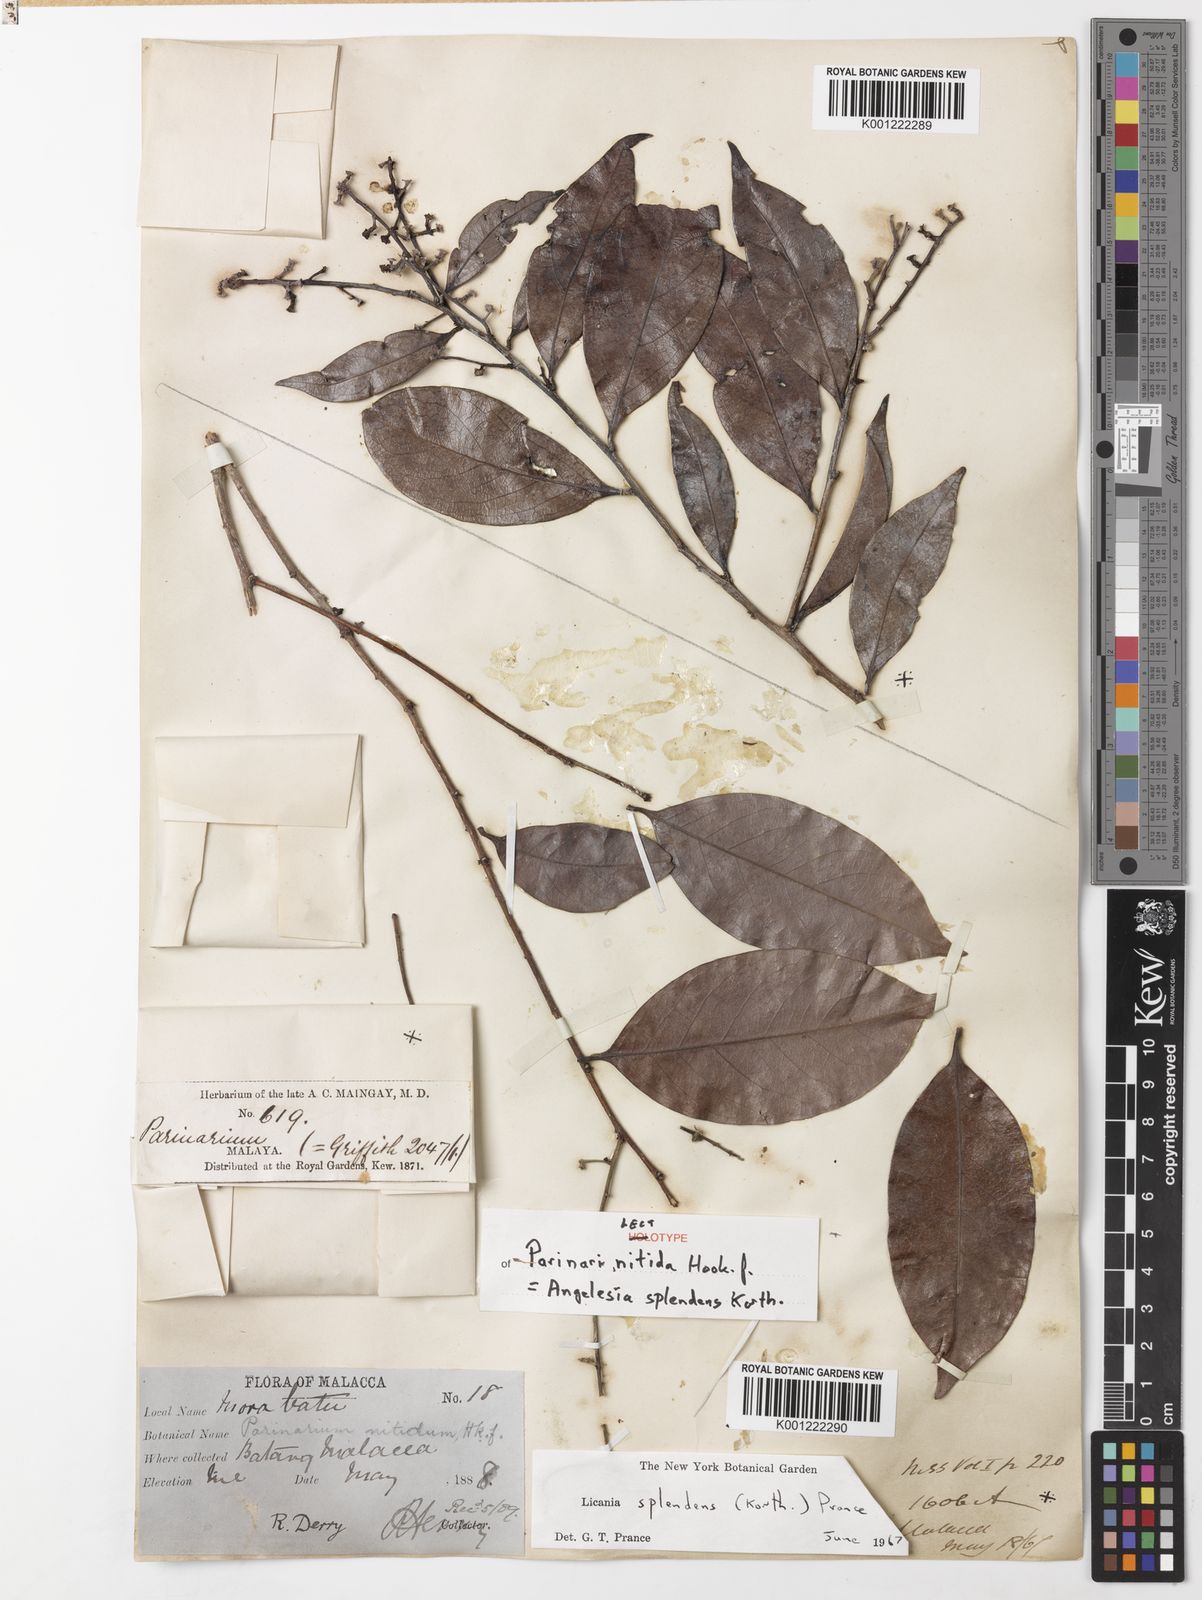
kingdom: Plantae
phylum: Tracheophyta
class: Magnoliopsida
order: Malpighiales
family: Chrysobalanaceae
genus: Angelesia
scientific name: Angelesia splendens
